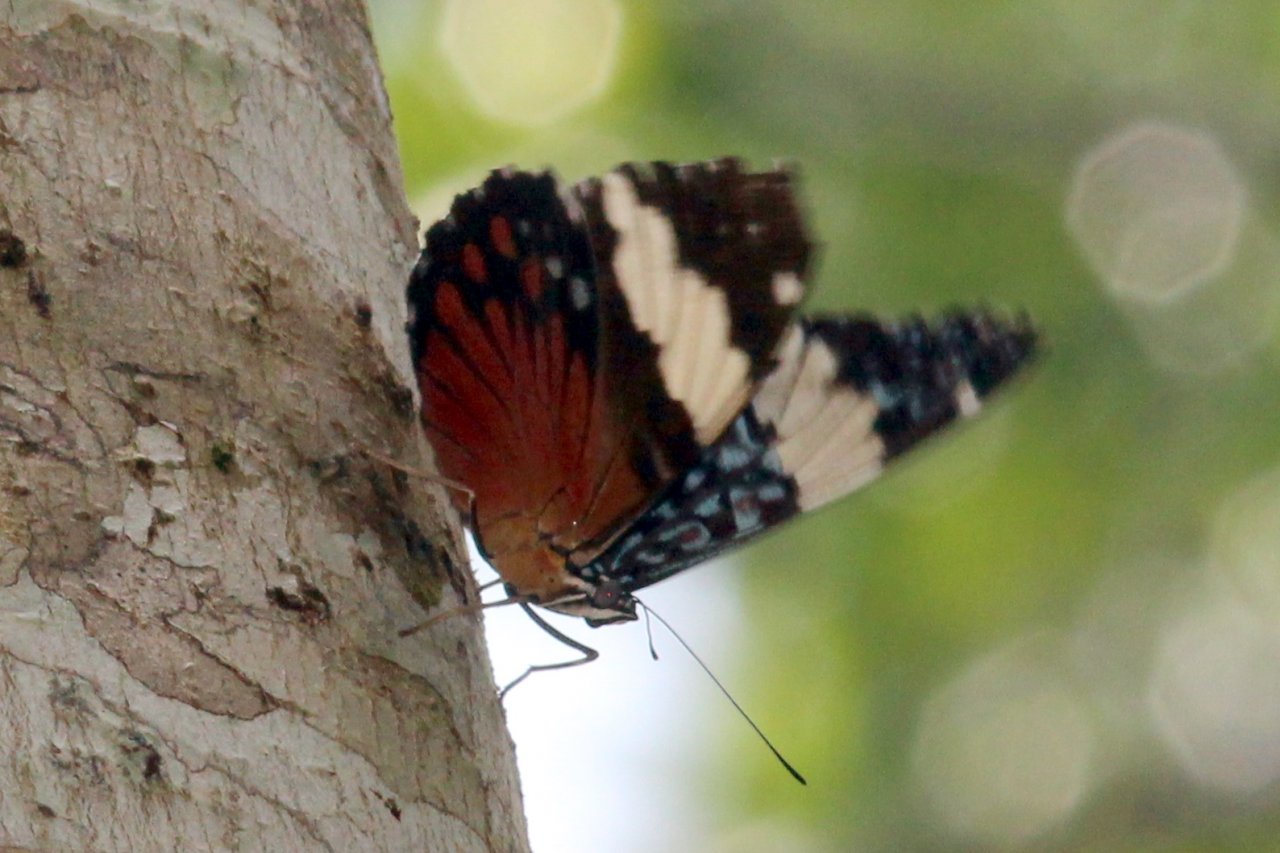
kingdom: Animalia
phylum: Arthropoda
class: Insecta
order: Lepidoptera
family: Nymphalidae
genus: Hamadryas
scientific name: Hamadryas amphinome
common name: Red Cracker
